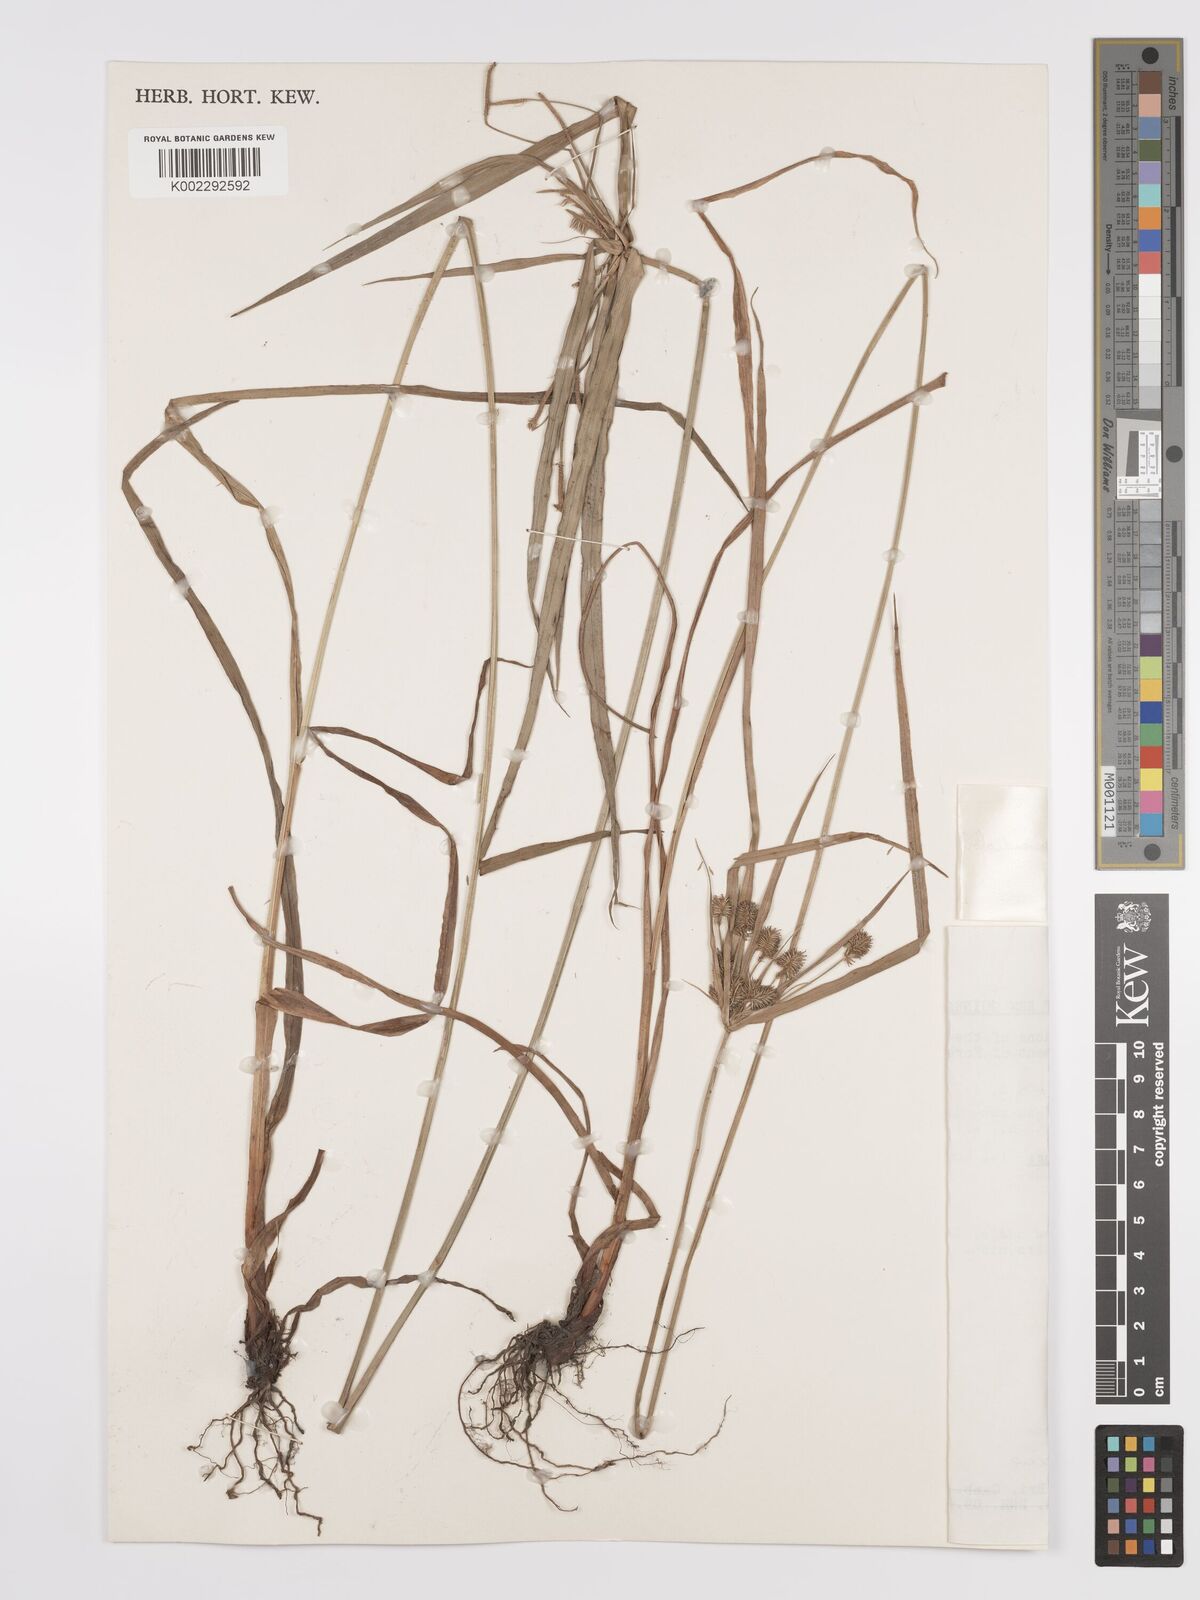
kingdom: Plantae
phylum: Tracheophyta
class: Liliopsida
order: Poales
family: Cyperaceae
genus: Cyperus
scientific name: Cyperus cyperoides
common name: Pacific island flat sedge
